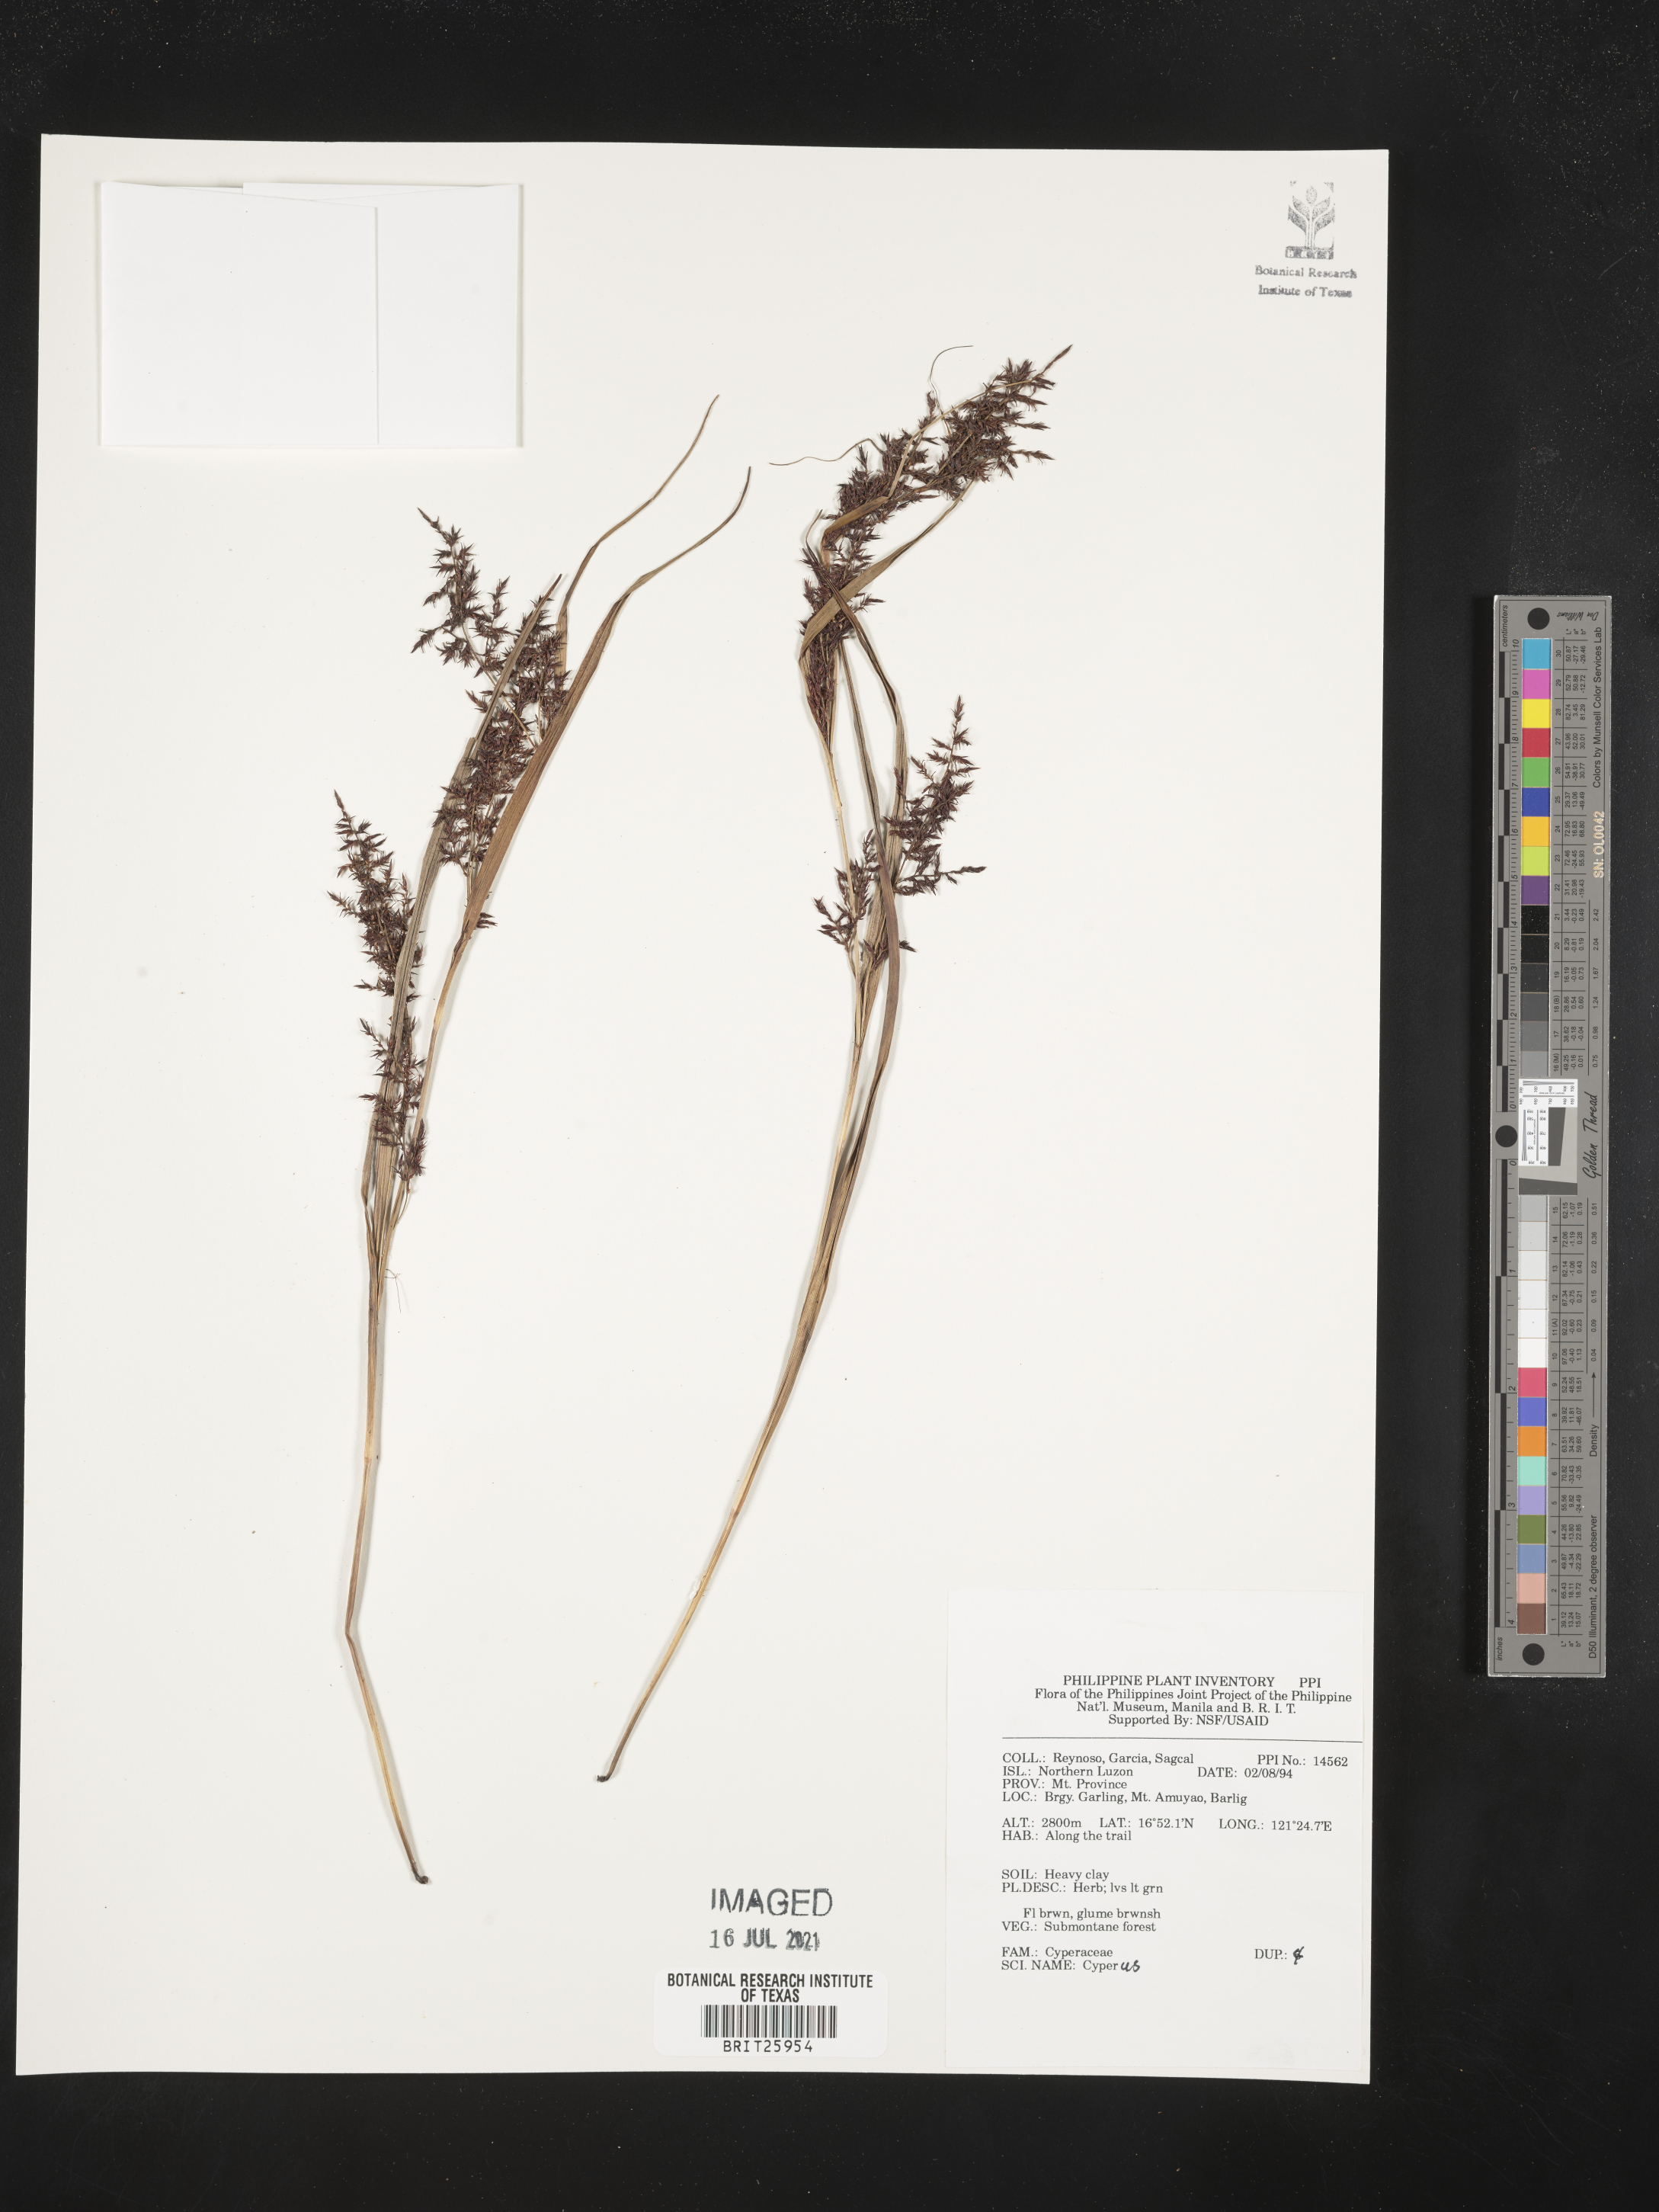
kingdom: Plantae
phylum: Tracheophyta
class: Liliopsida
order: Poales
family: Cyperaceae
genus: Cyperus
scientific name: Cyperus
